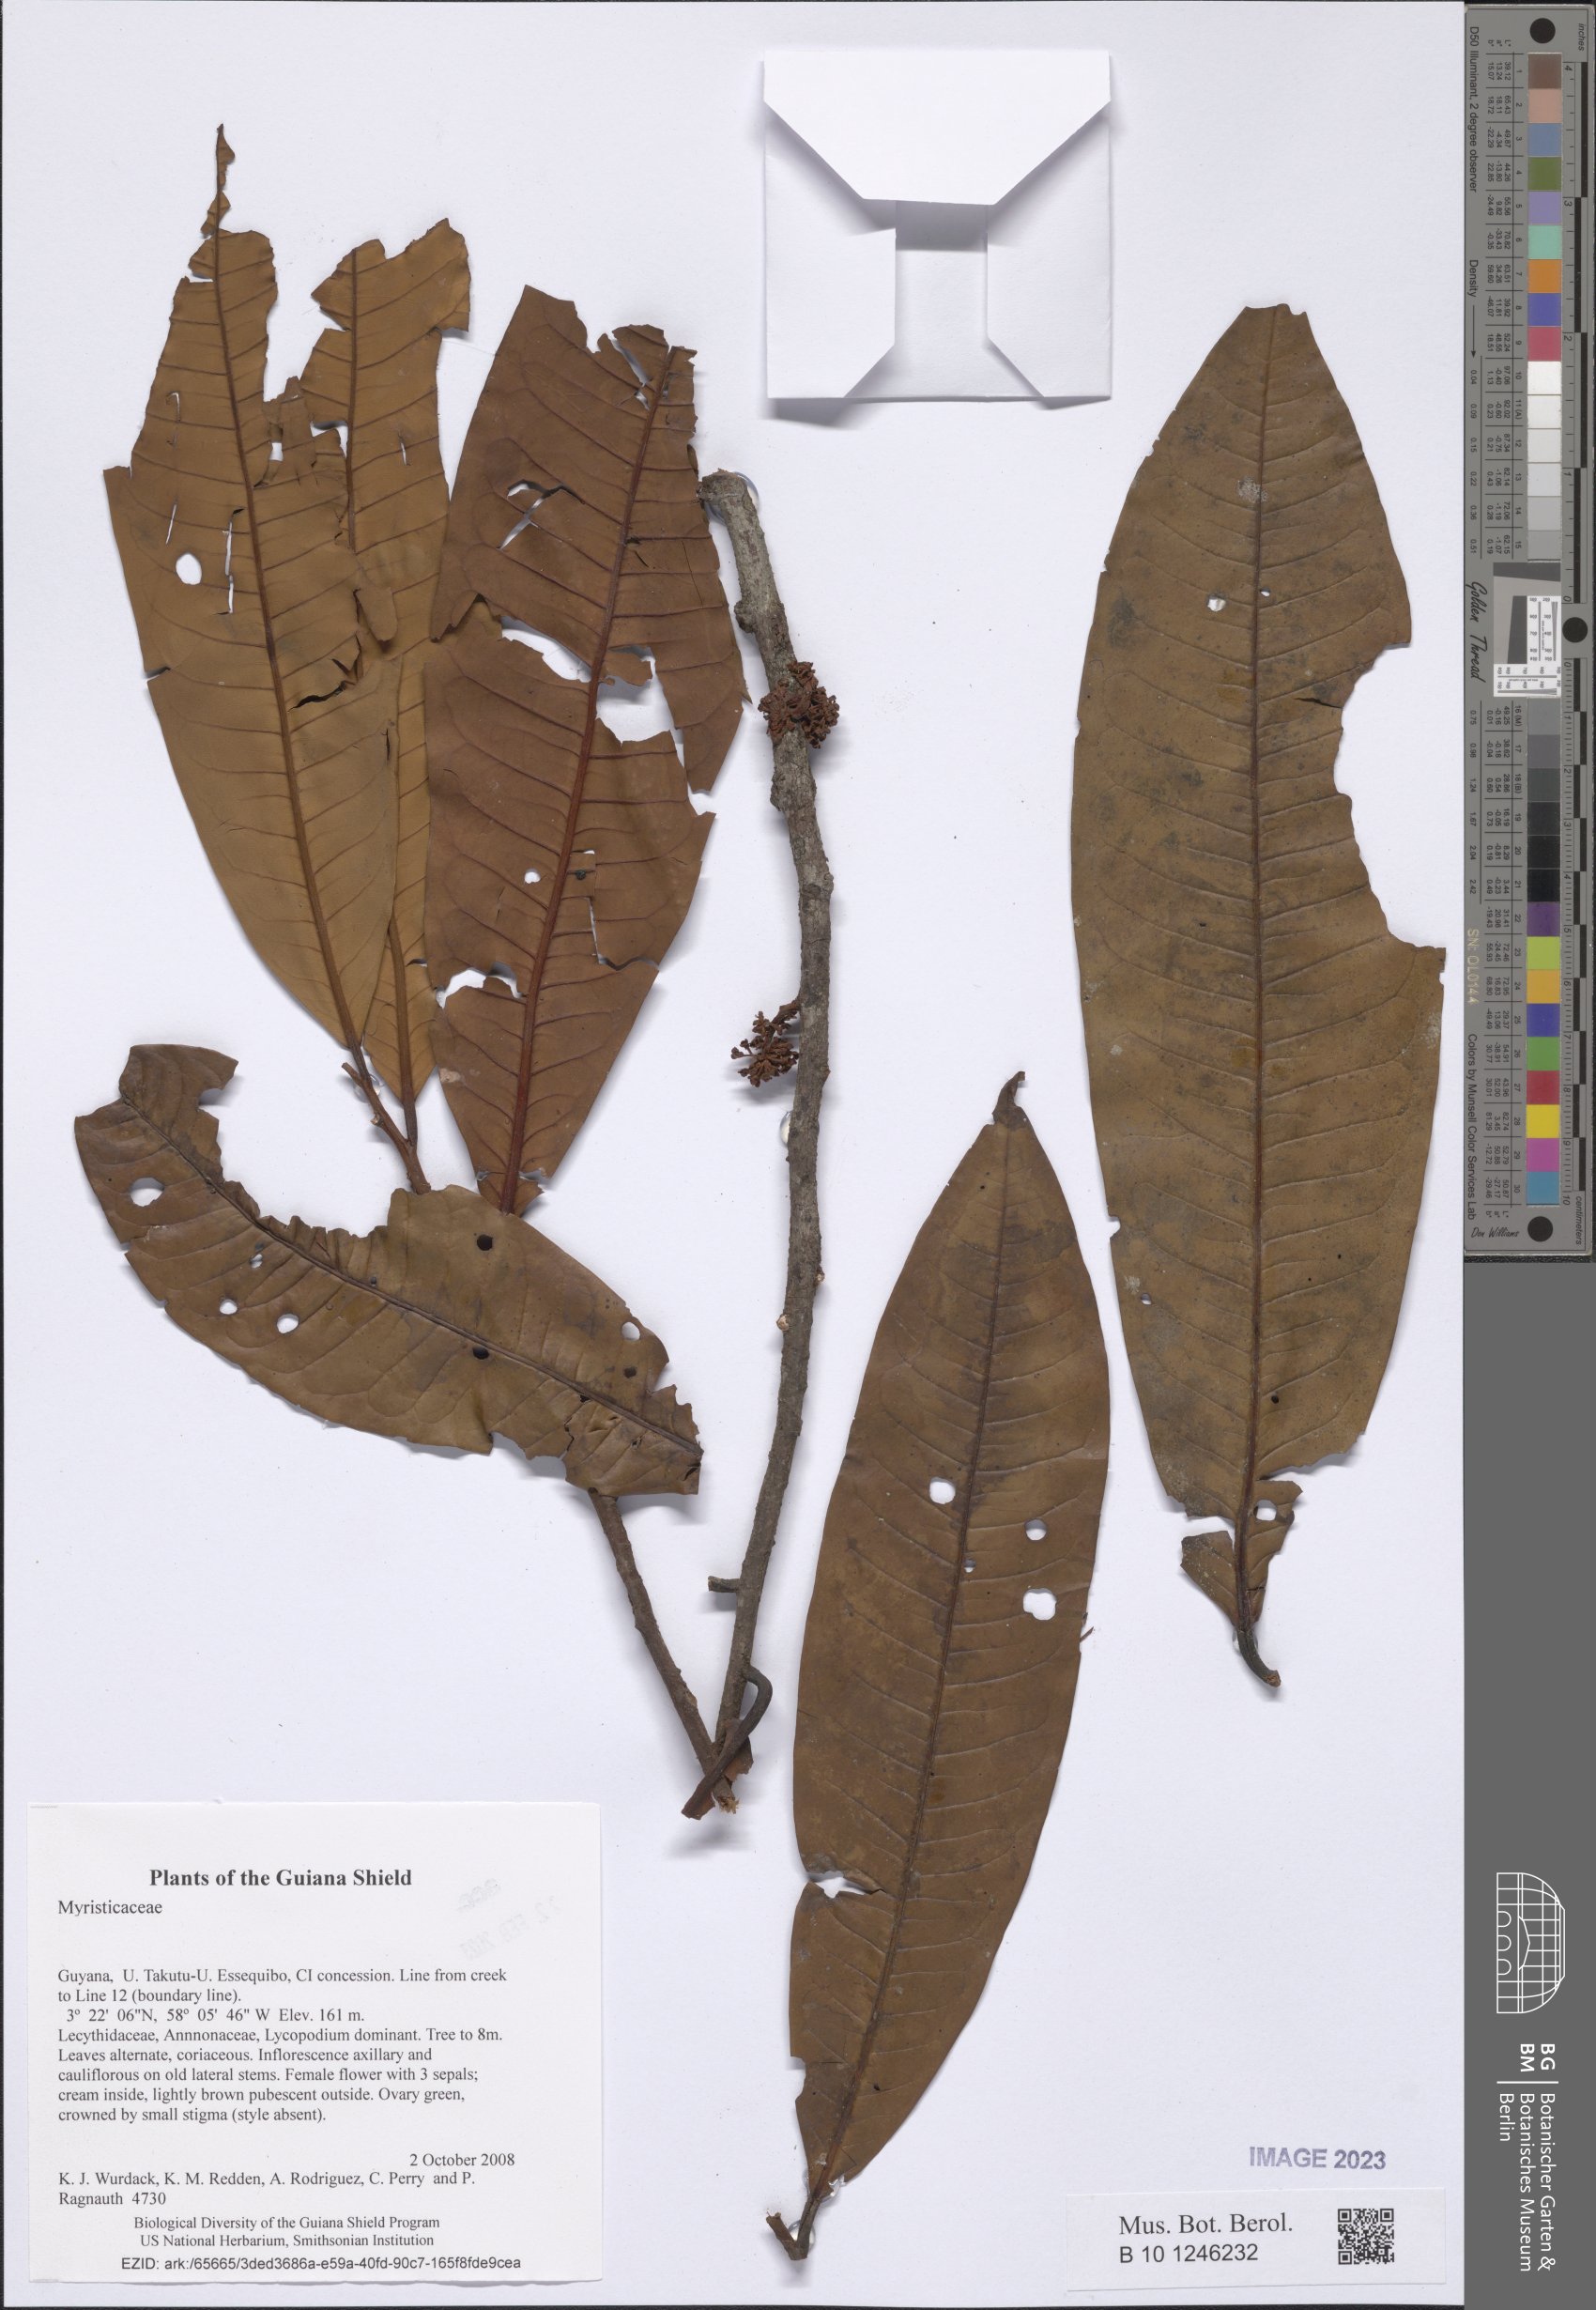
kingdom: Plantae
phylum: Tracheophyta
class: Magnoliopsida
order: Ericales
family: Primulaceae
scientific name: Primulaceae
